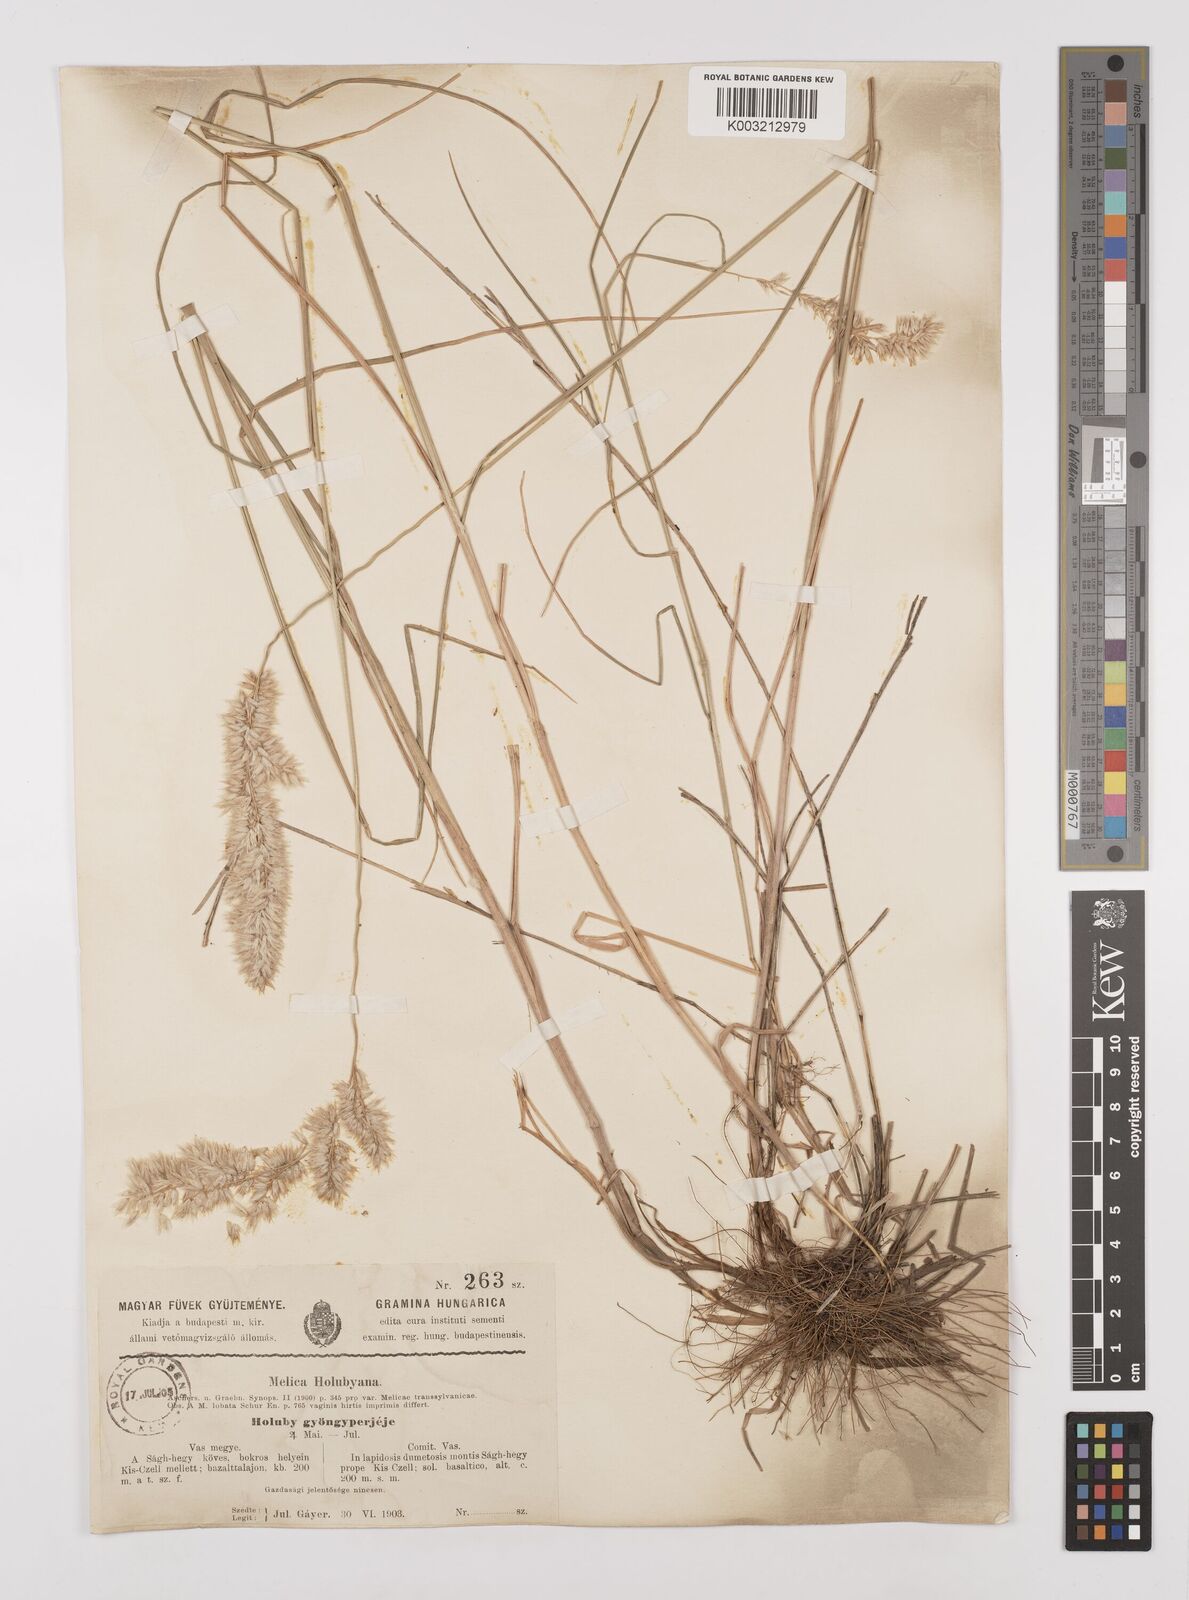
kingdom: Plantae
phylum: Tracheophyta
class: Liliopsida
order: Poales
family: Poaceae
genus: Melica
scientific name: Melica transsilvanica
